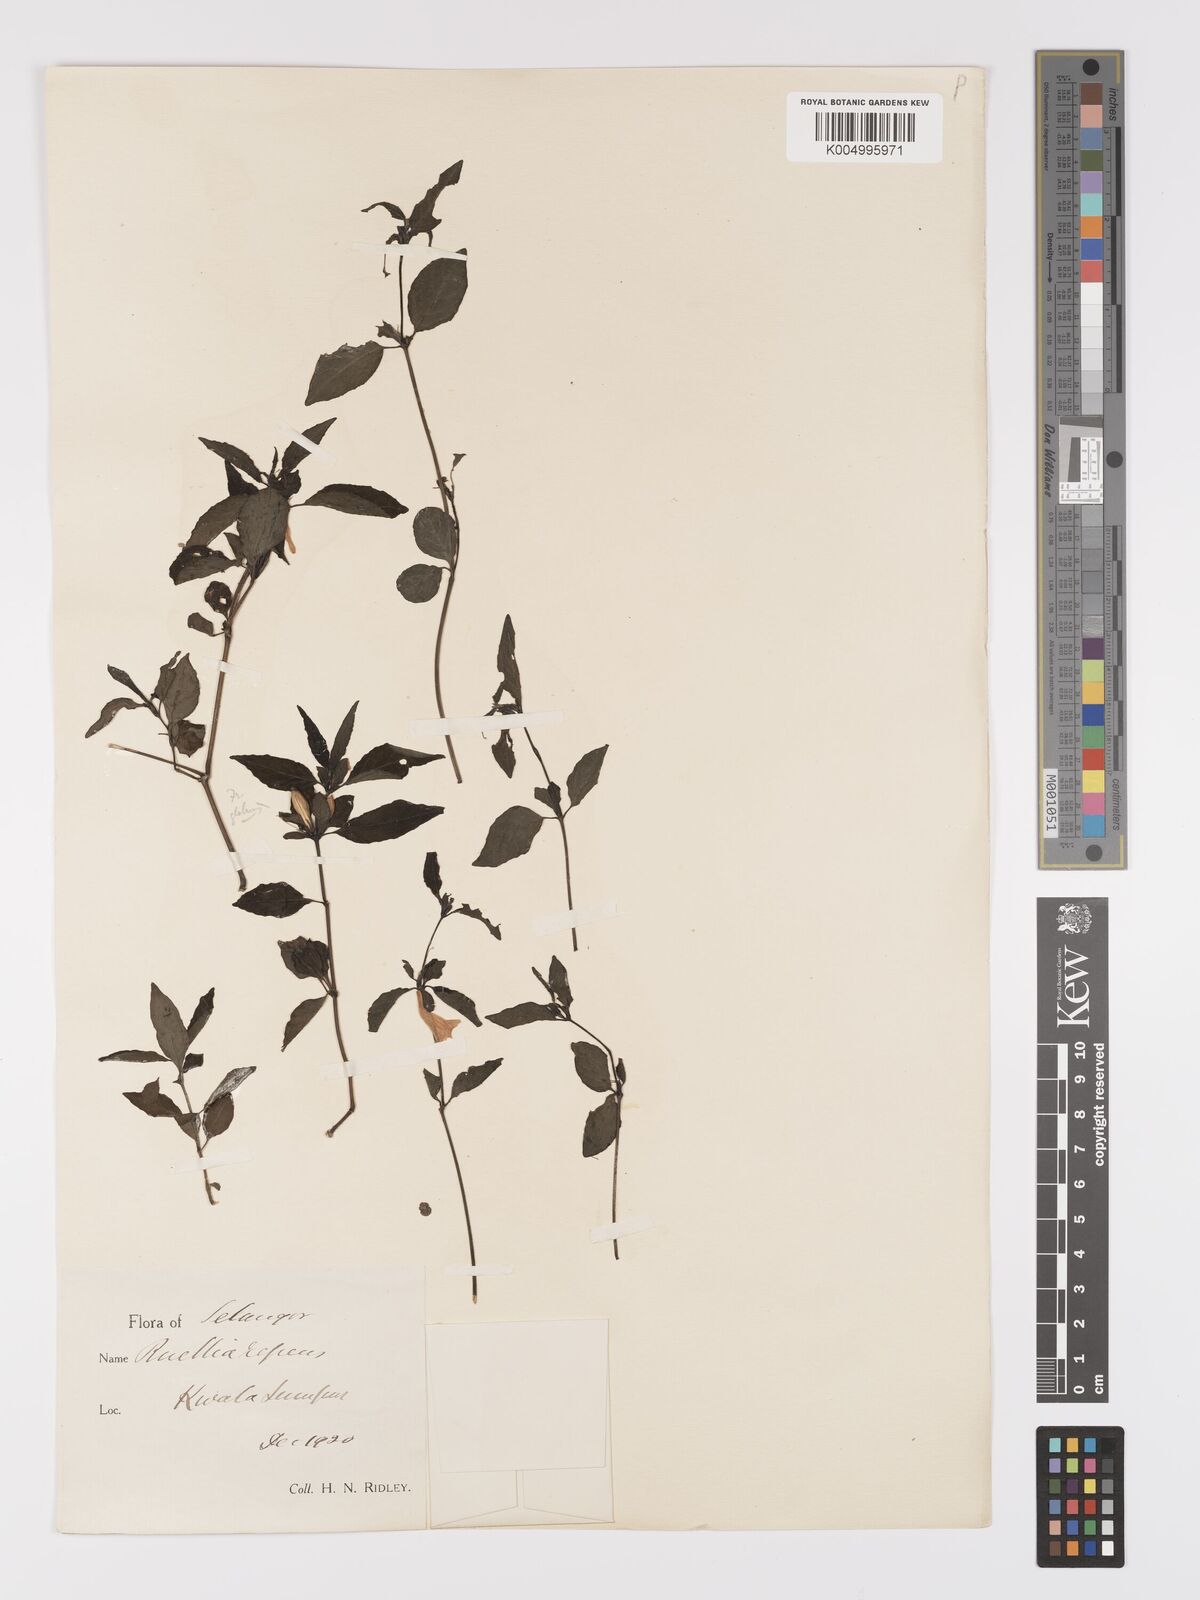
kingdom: Plantae
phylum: Tracheophyta
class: Magnoliopsida
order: Lamiales
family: Acanthaceae
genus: Ruellia
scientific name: Ruellia
